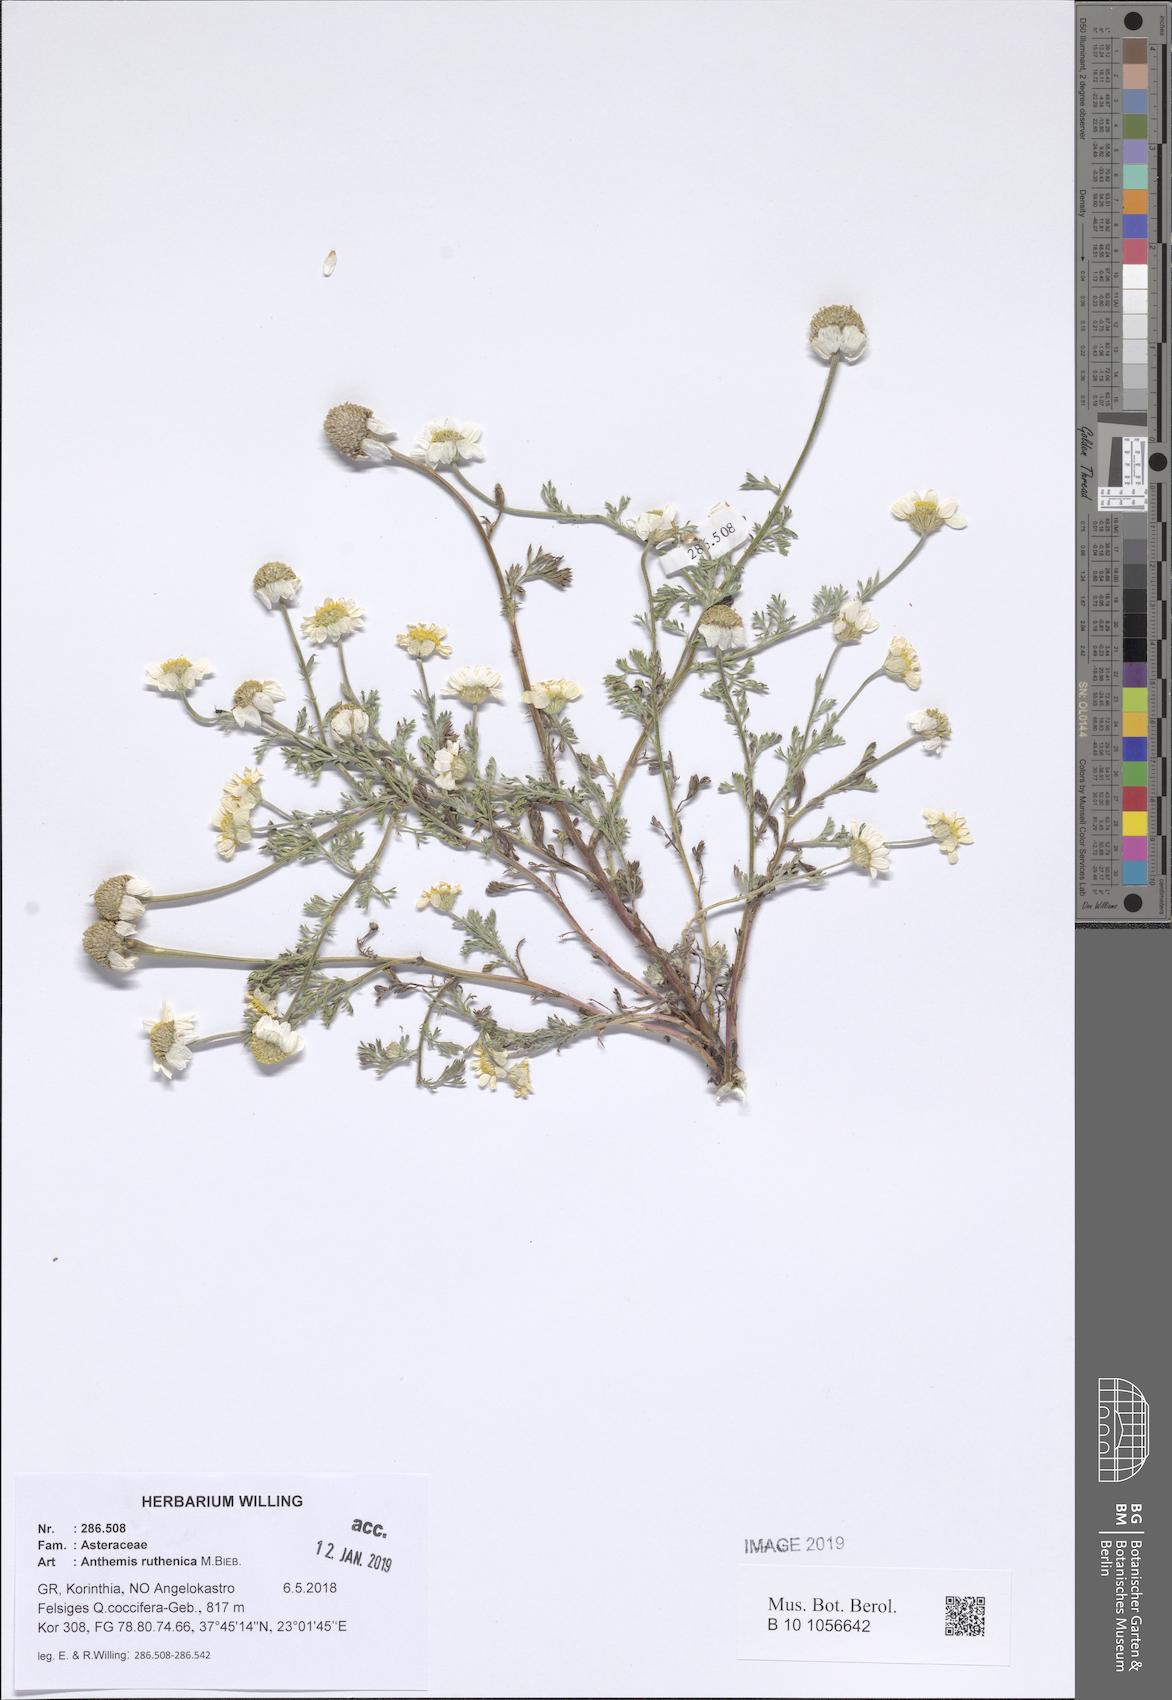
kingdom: Plantae
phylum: Tracheophyta
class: Magnoliopsida
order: Asterales
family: Asteraceae
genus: Anthemis
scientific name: Anthemis ruthenica
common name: Eastern chamomile
